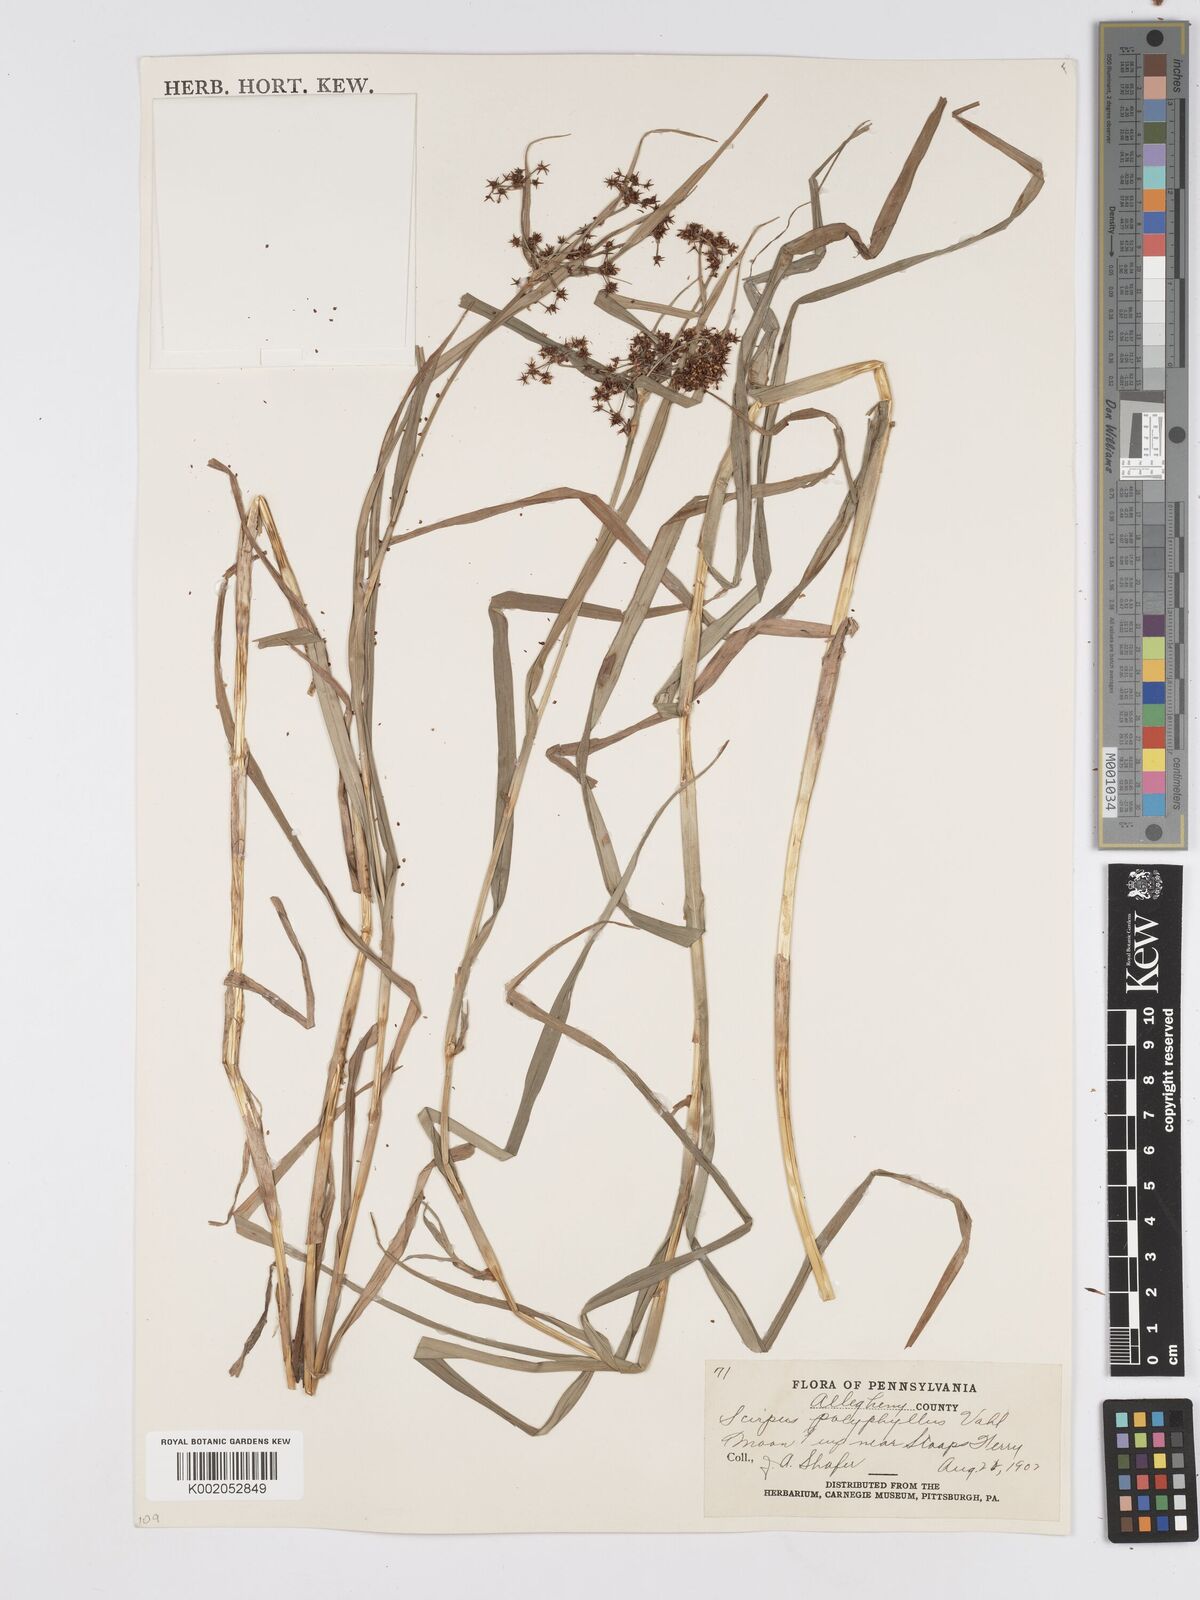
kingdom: Plantae
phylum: Tracheophyta
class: Liliopsida
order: Poales
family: Cyperaceae
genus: Scirpus
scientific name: Scirpus polyphyllus
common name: Leafy bulrush
